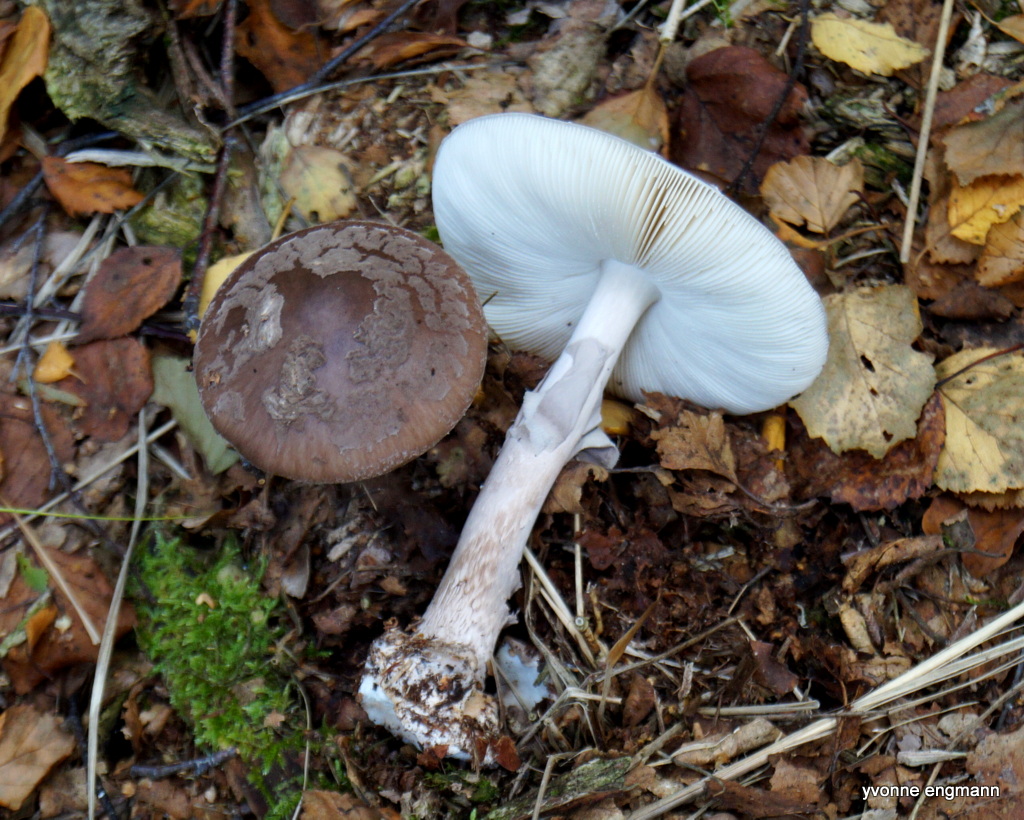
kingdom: Fungi
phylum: Basidiomycota
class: Agaricomycetes
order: Agaricales
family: Amanitaceae
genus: Amanita
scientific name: Amanita porphyria
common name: porfyr-fluesvamp
